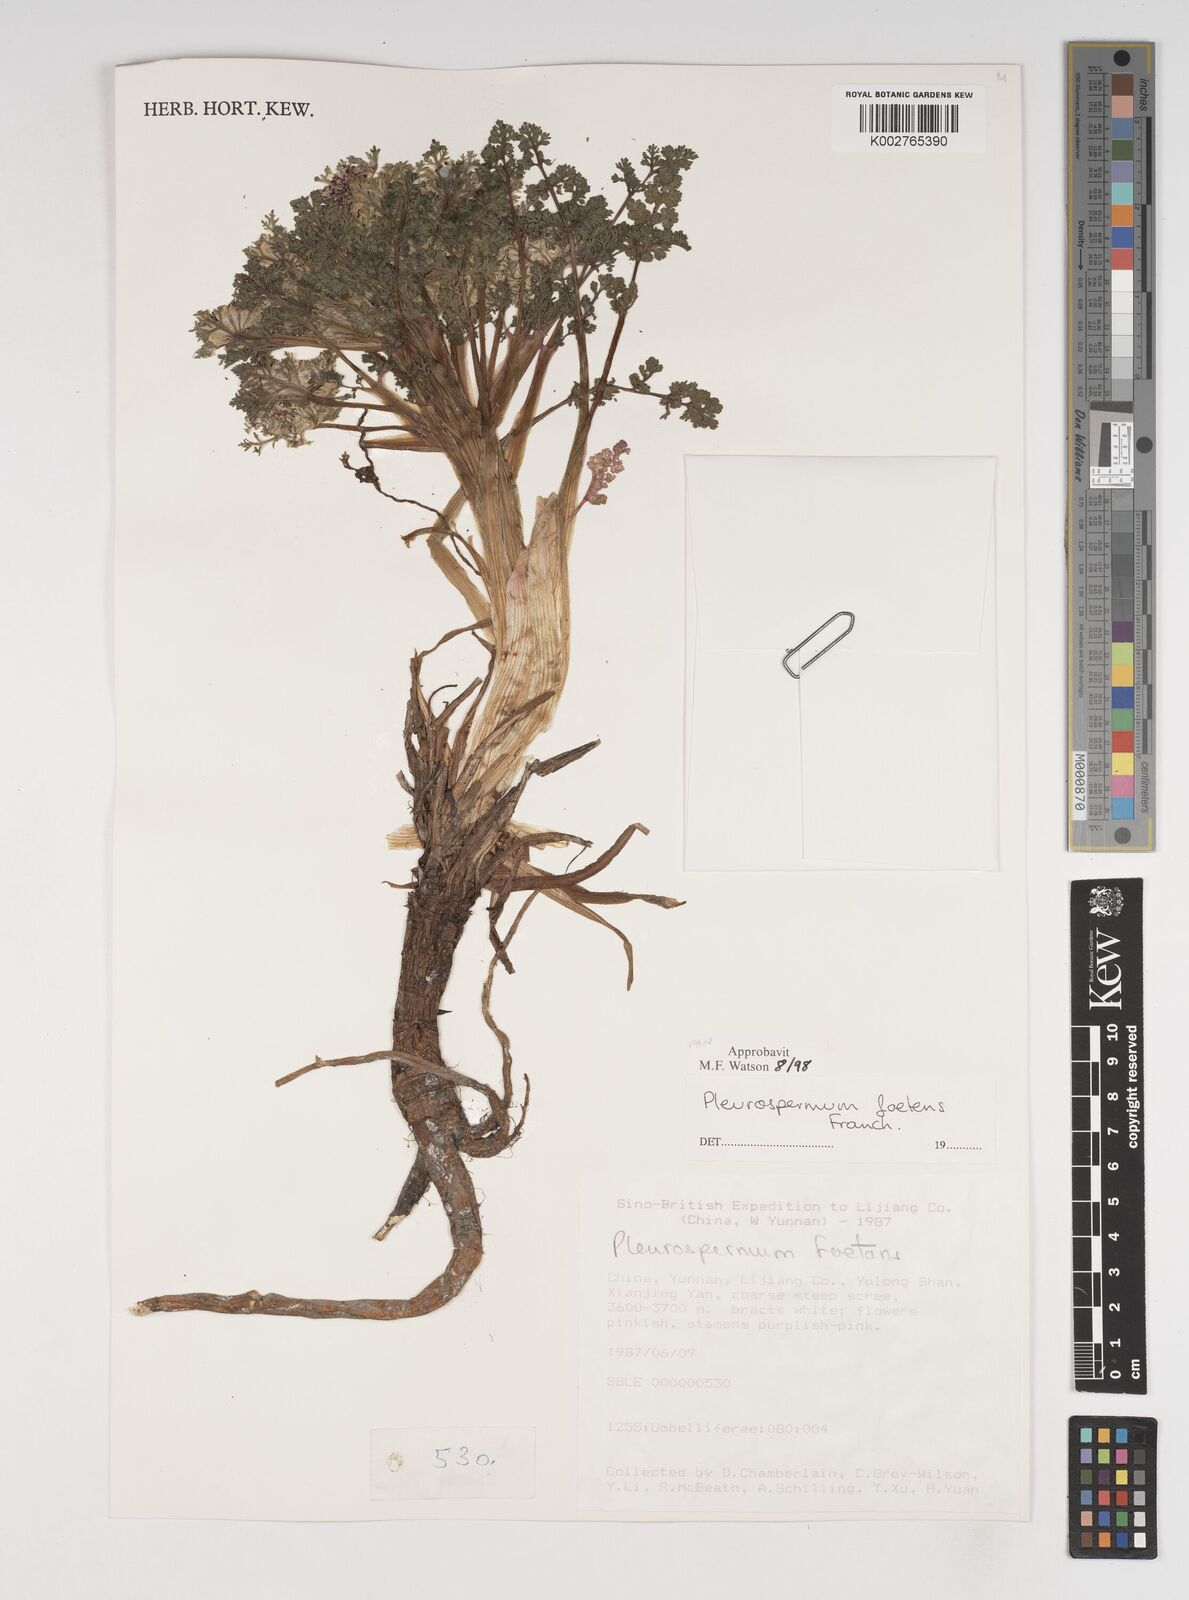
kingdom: Plantae
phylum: Tracheophyta
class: Magnoliopsida
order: Apiales
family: Apiaceae
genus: Hymenidium
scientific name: Hymenidium foetens
